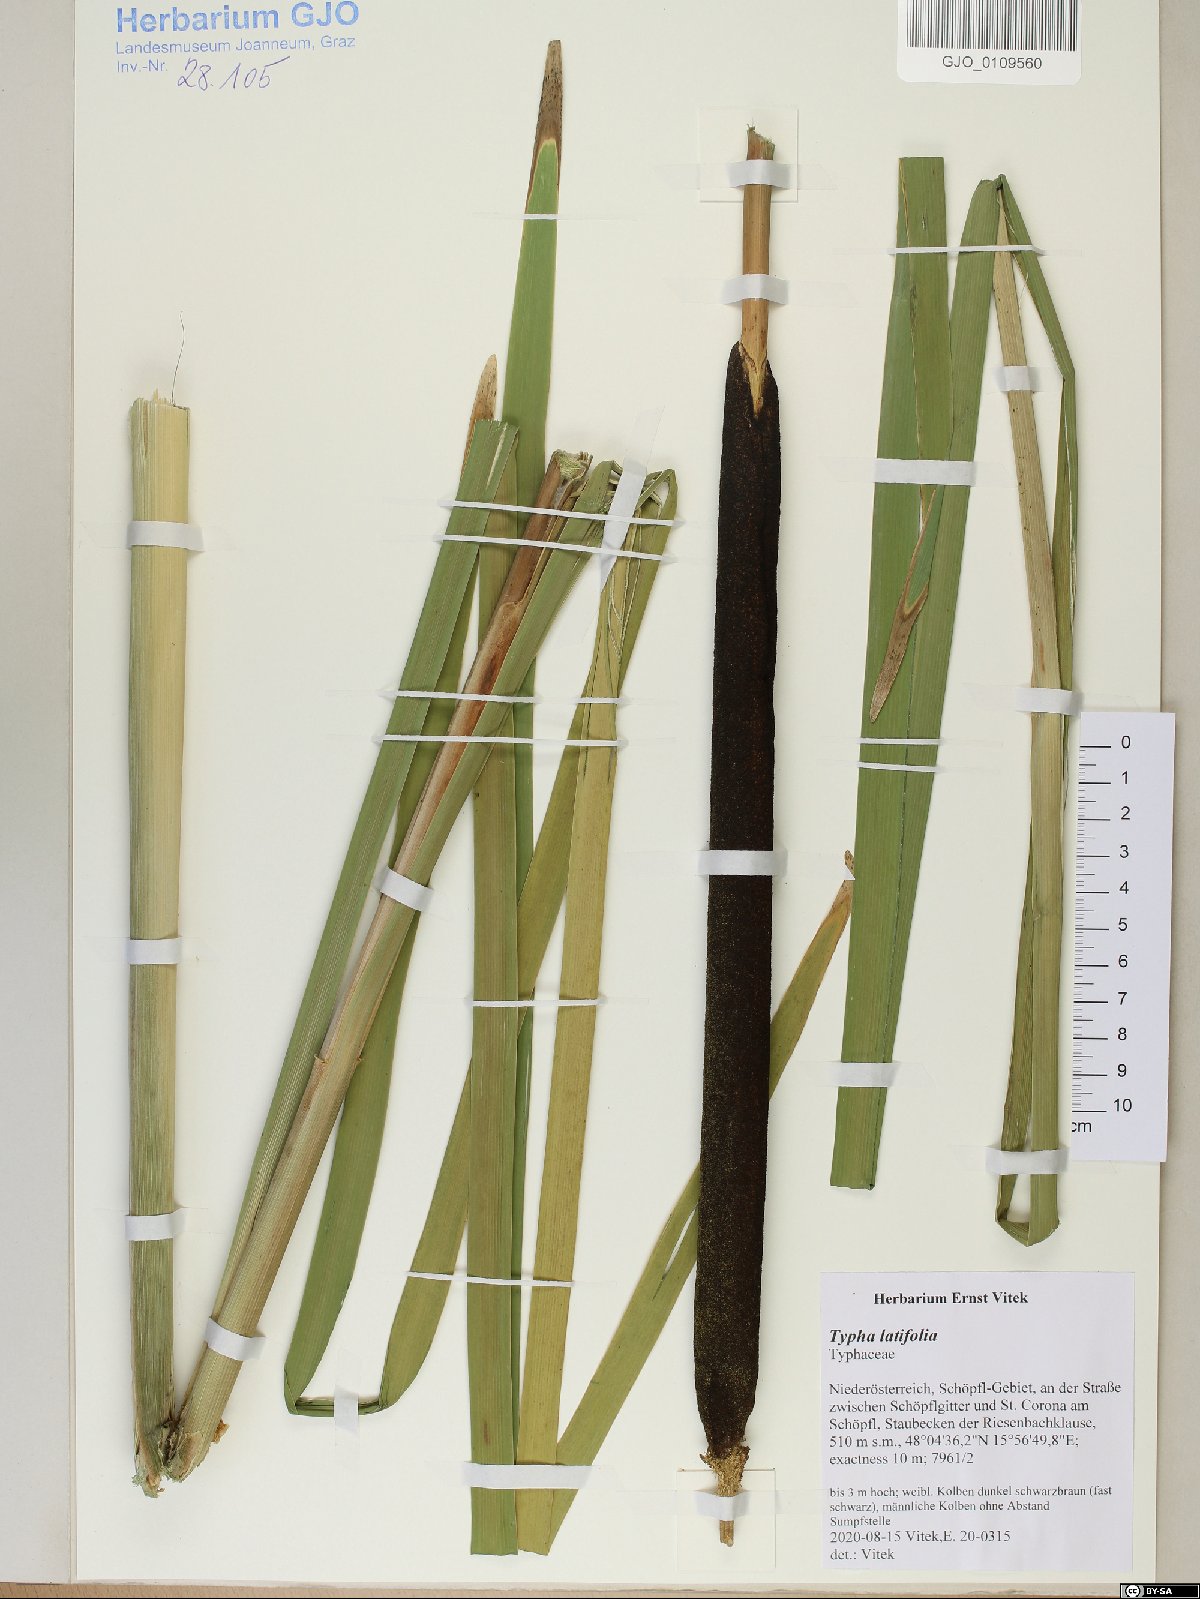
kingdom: Plantae
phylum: Tracheophyta
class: Liliopsida
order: Poales
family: Typhaceae
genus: Typha
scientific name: Typha latifolia
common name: Broadleaf cattail
